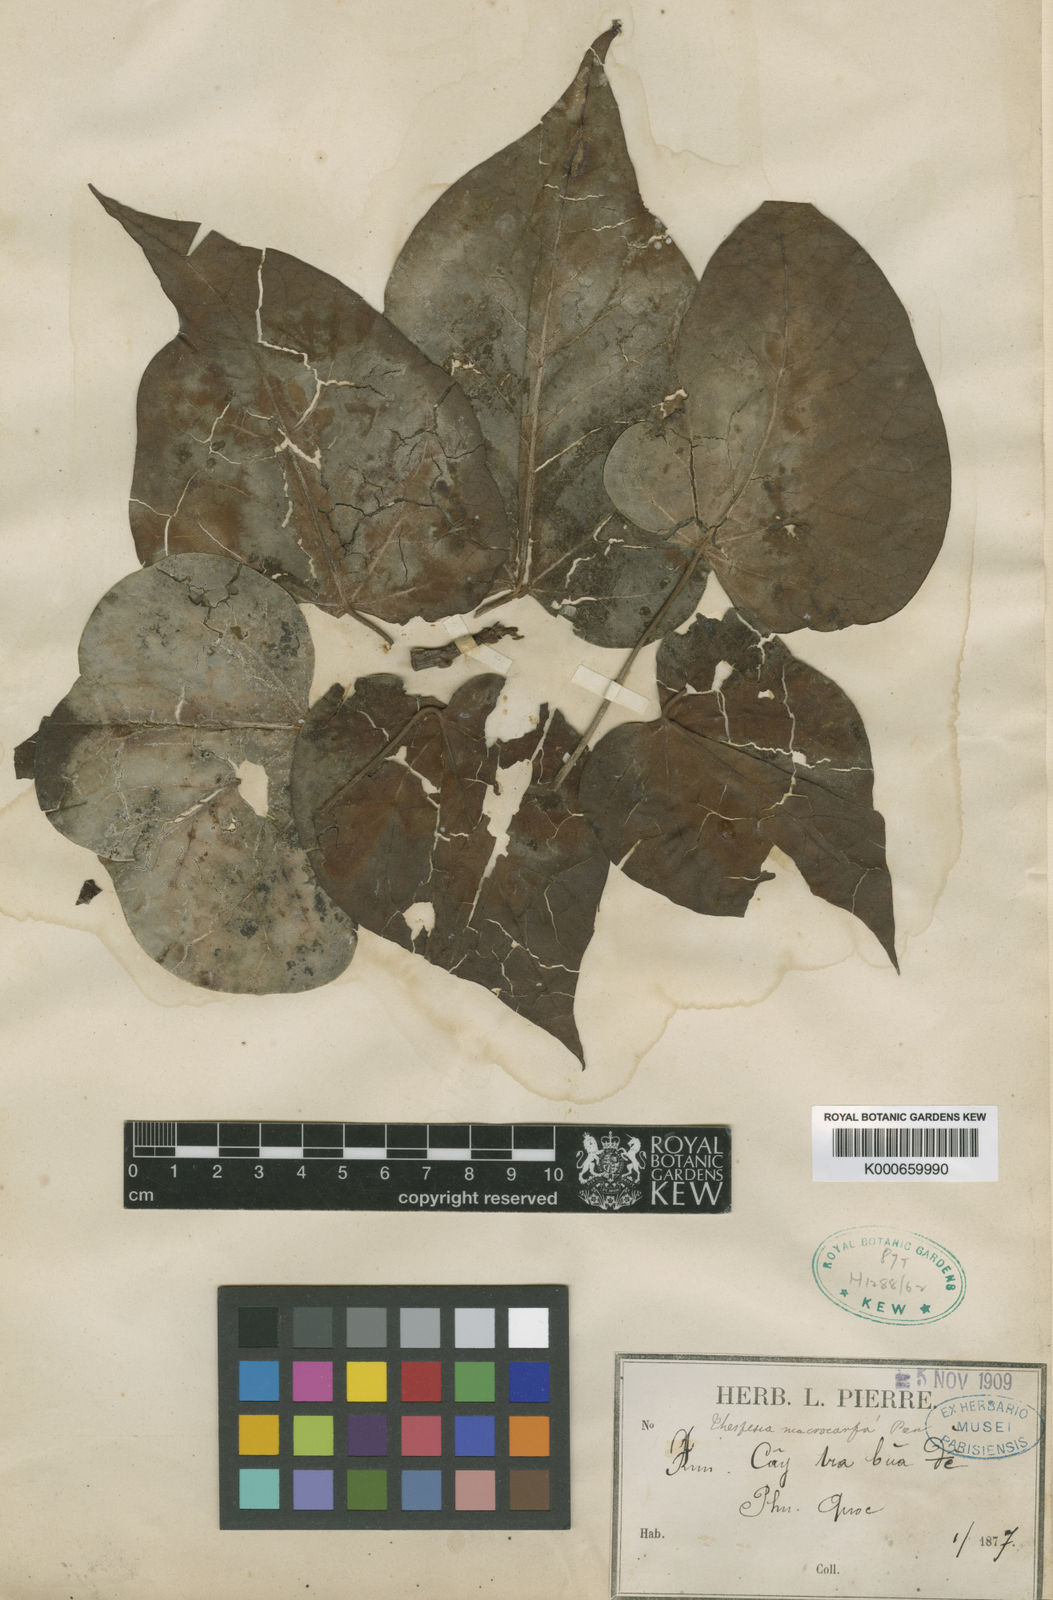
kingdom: Plantae
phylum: Tracheophyta
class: Magnoliopsida
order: Malvales
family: Malvaceae
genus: Thespesia
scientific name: Thespesia
